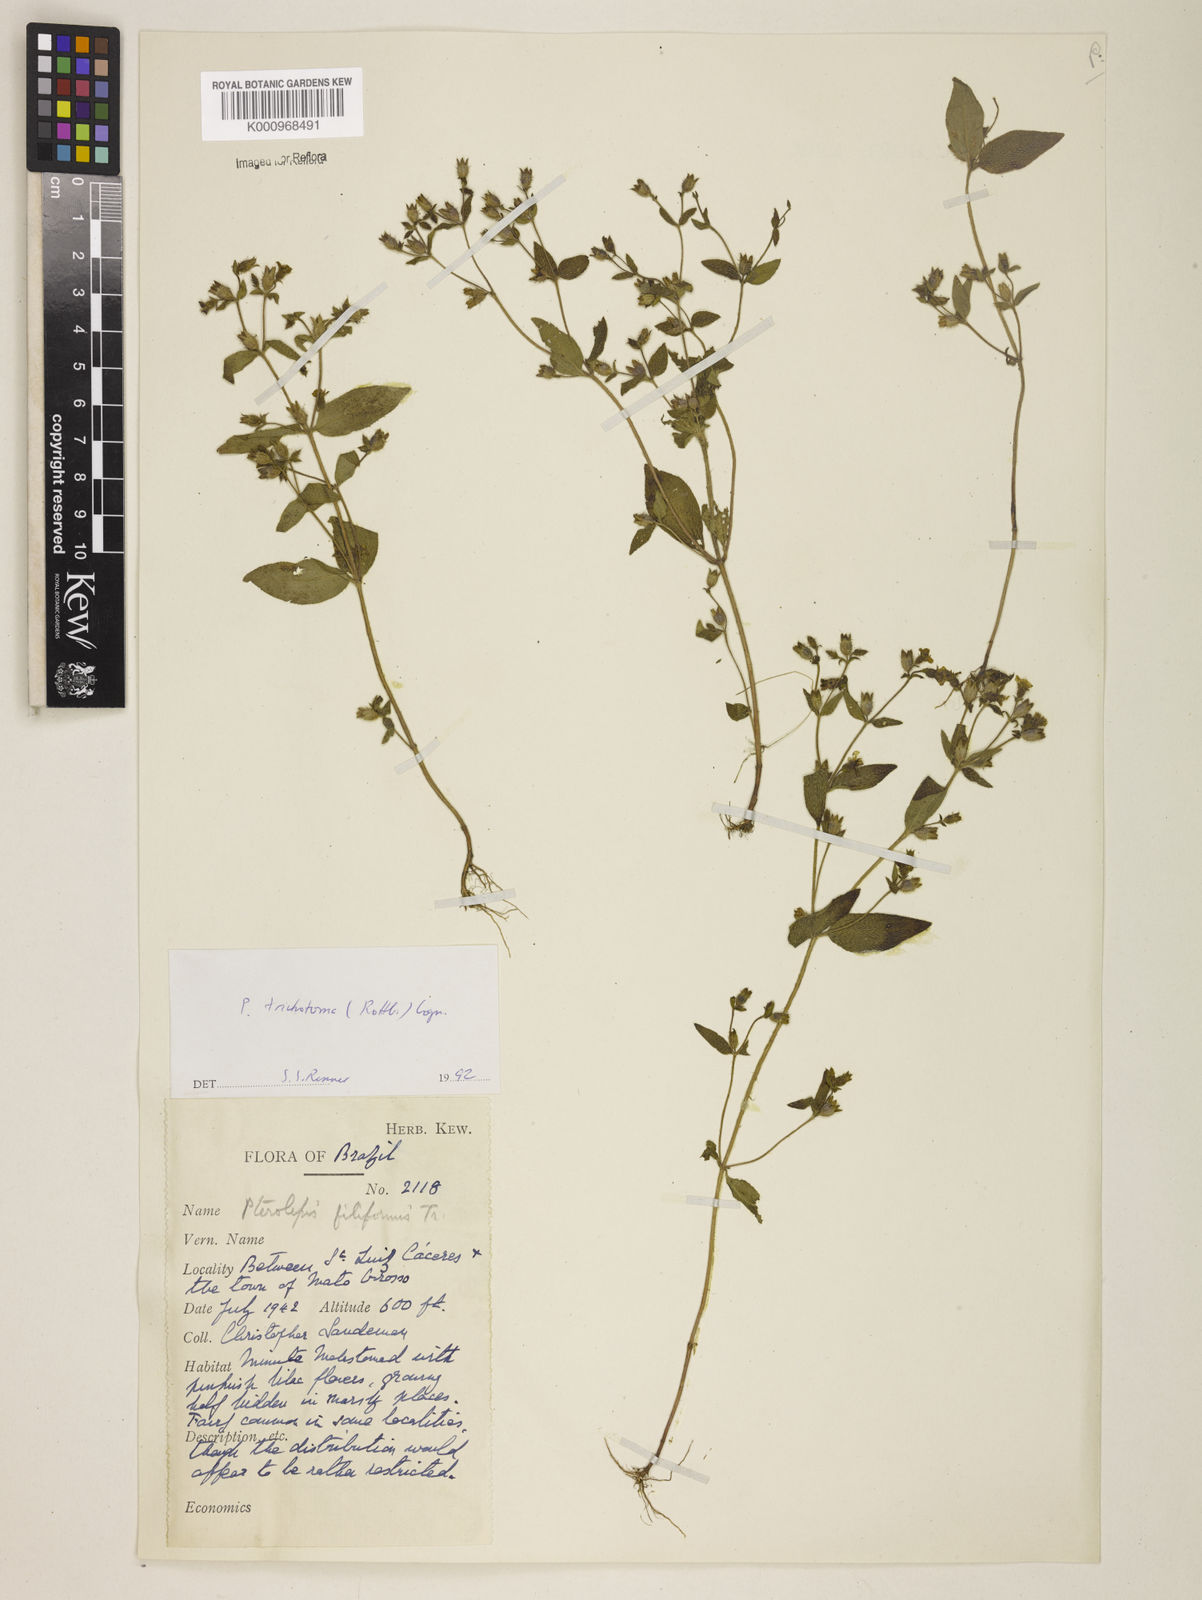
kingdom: Plantae
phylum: Tracheophyta
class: Magnoliopsida
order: Myrtales
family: Melastomataceae
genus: Pterolepis
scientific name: Pterolepis trichotoma
